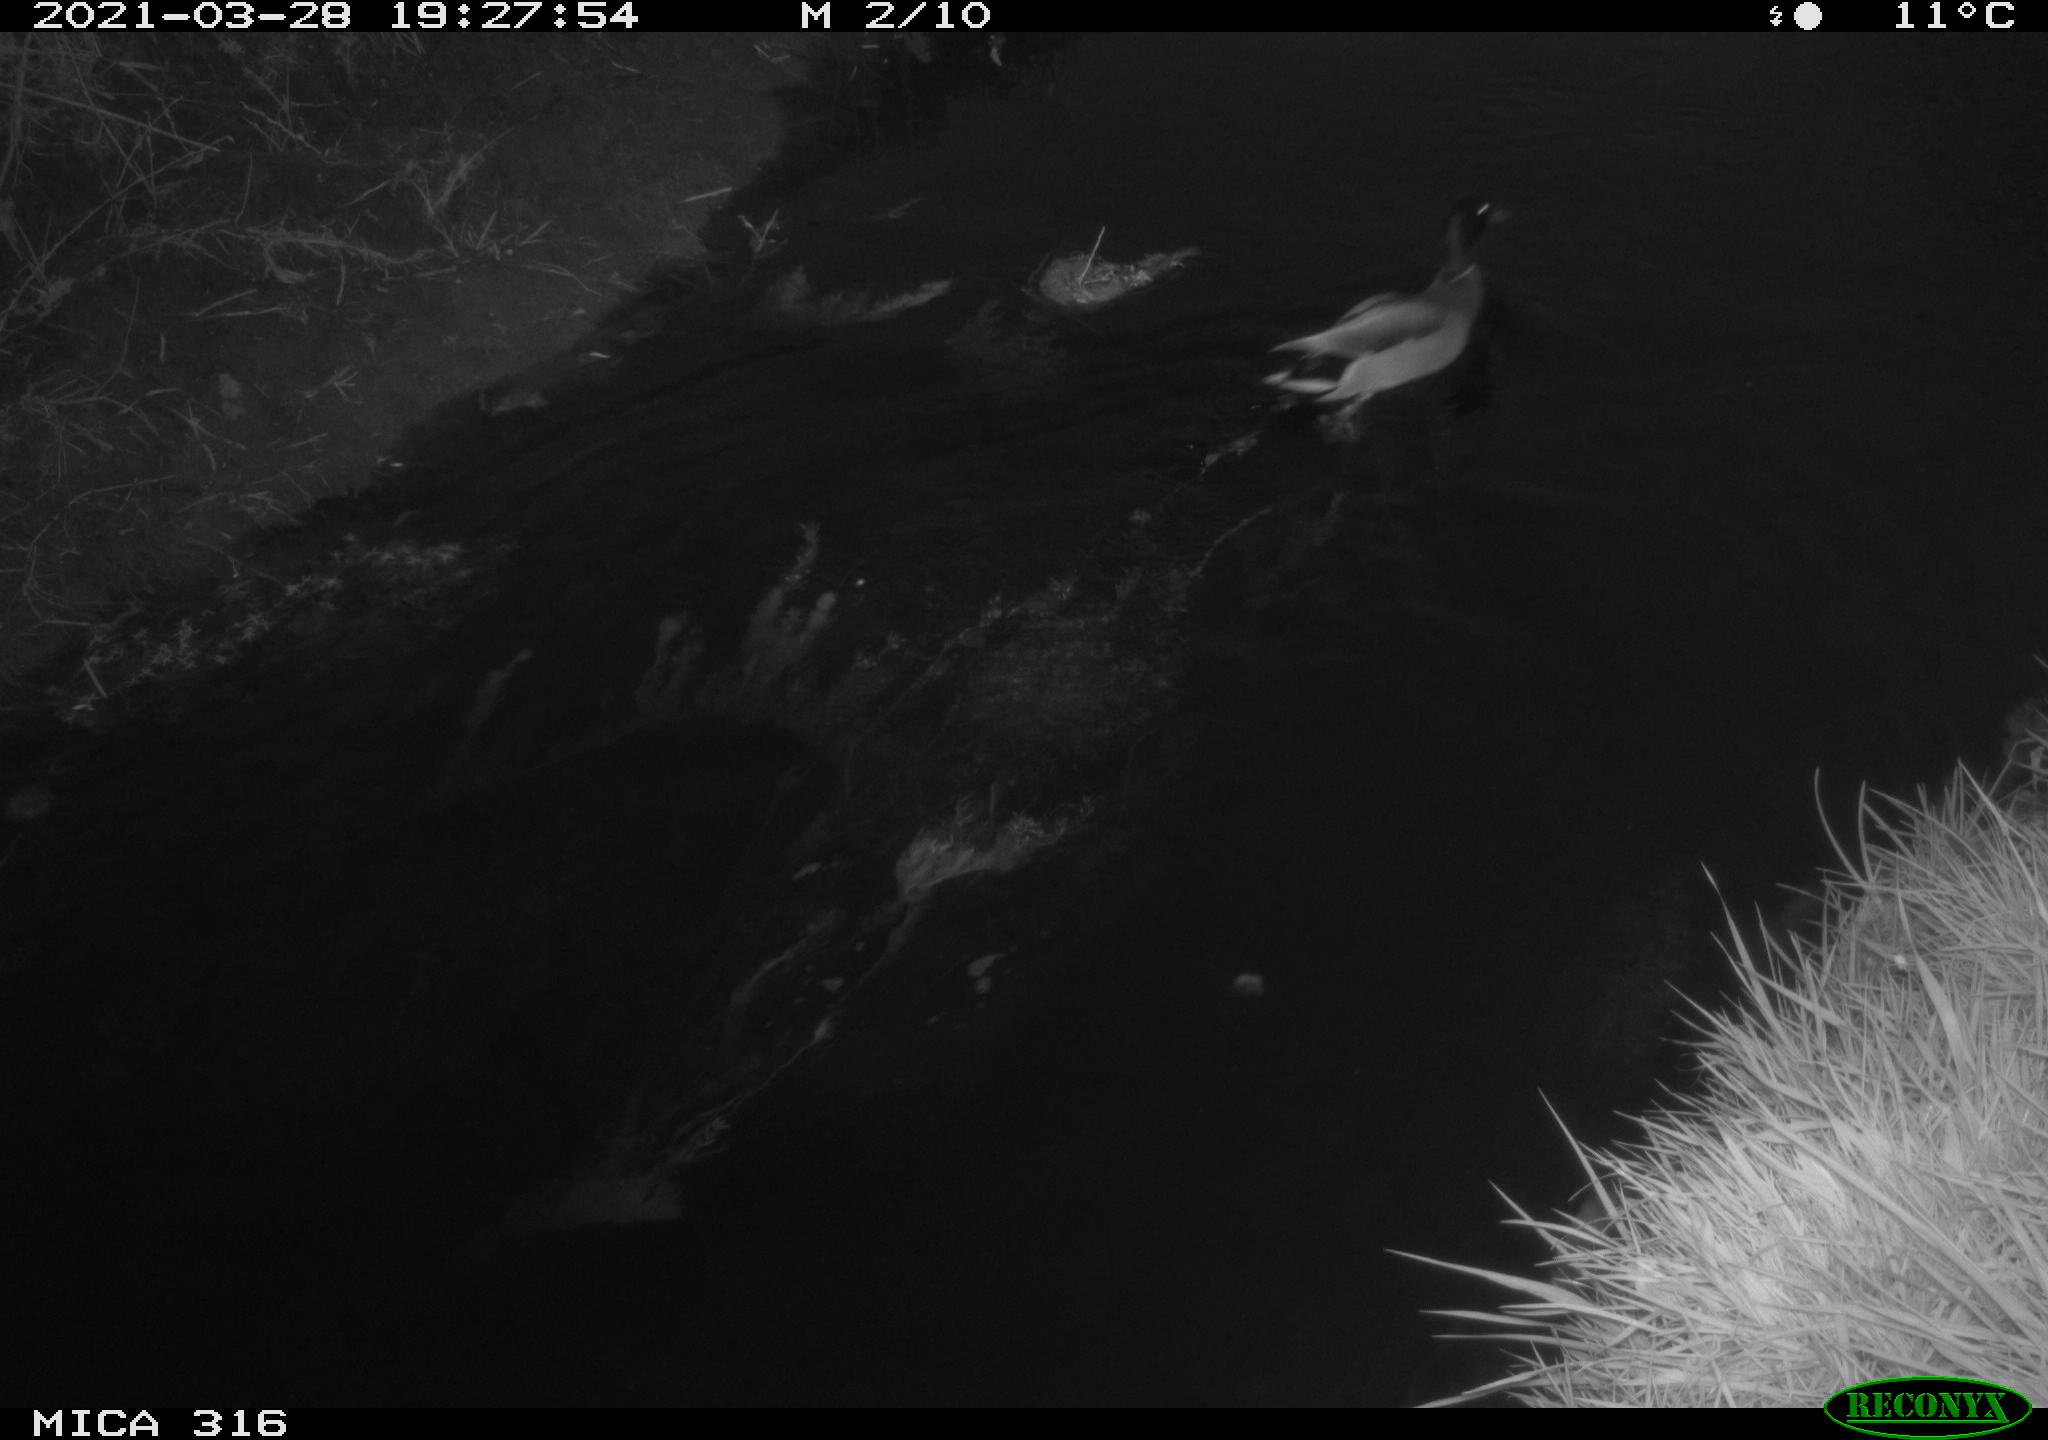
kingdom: Animalia
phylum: Chordata
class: Aves
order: Anseriformes
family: Anatidae
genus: Anas
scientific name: Anas platyrhynchos
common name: Mallard
